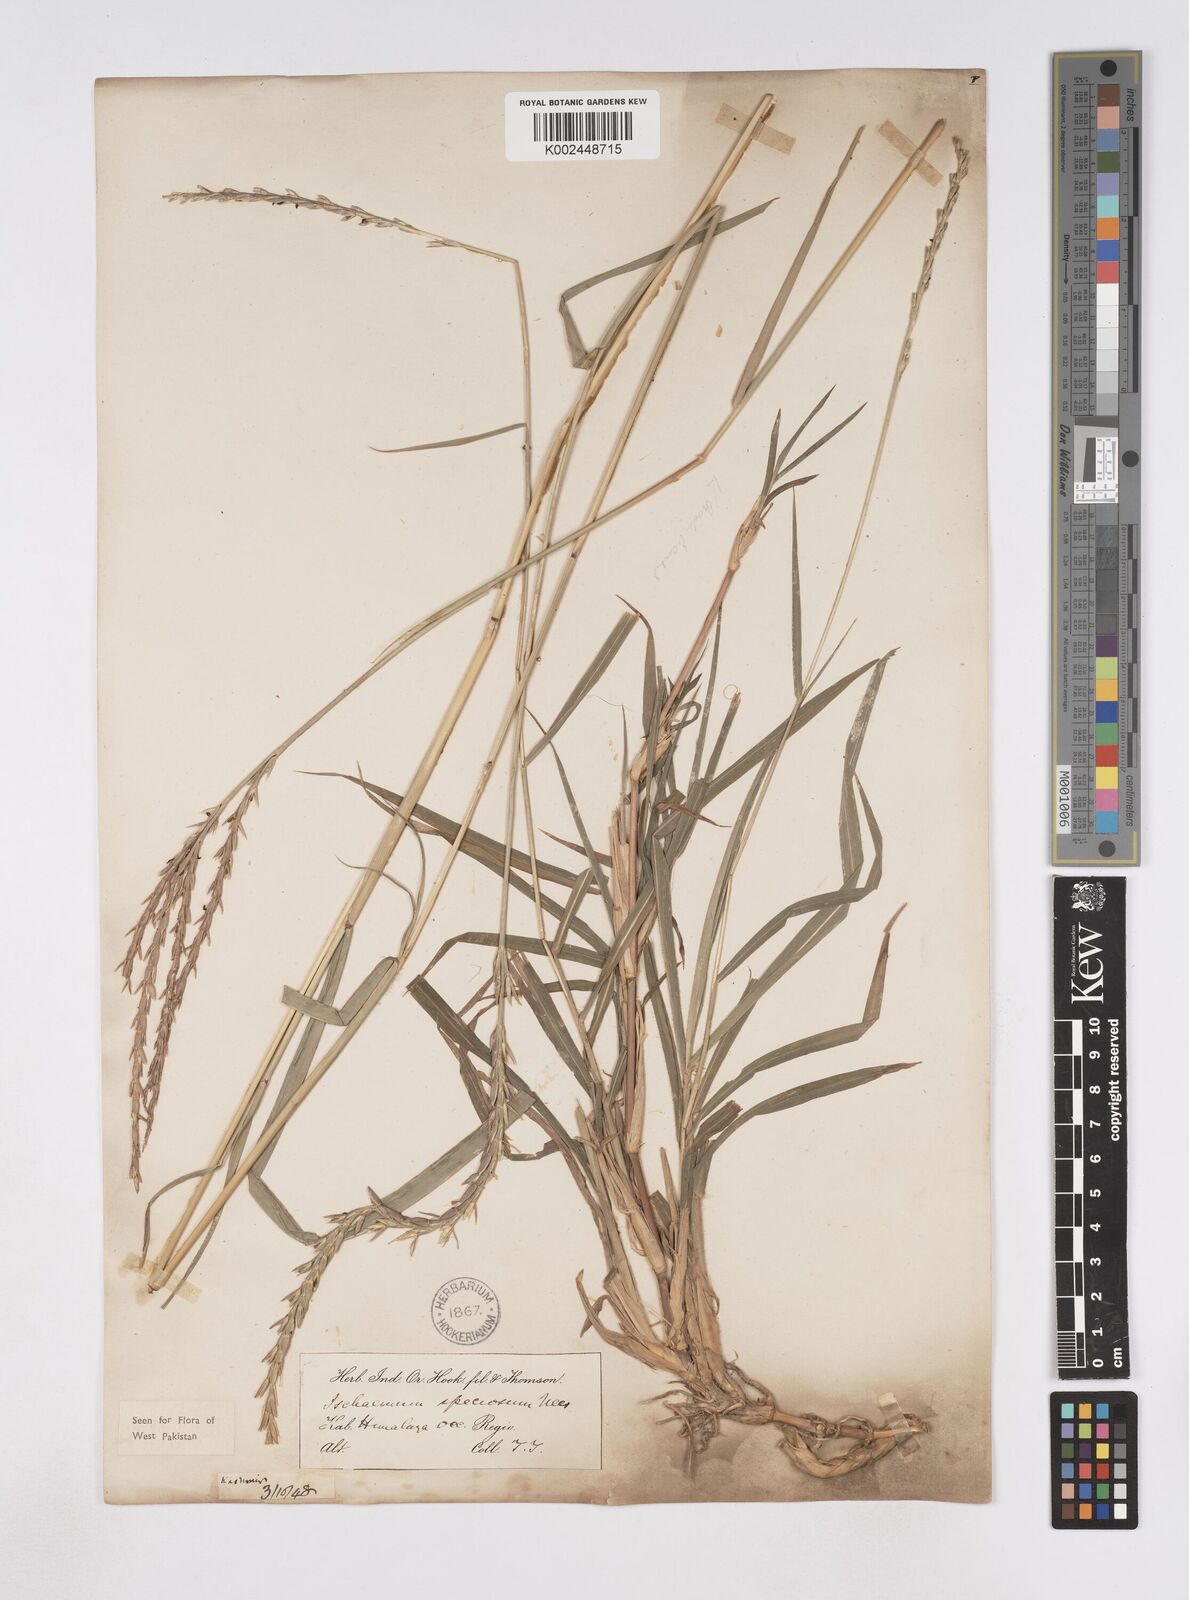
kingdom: Plantae
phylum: Tracheophyta
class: Liliopsida
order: Poales
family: Poaceae
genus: Phacelurus
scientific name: Phacelurus speciosus
